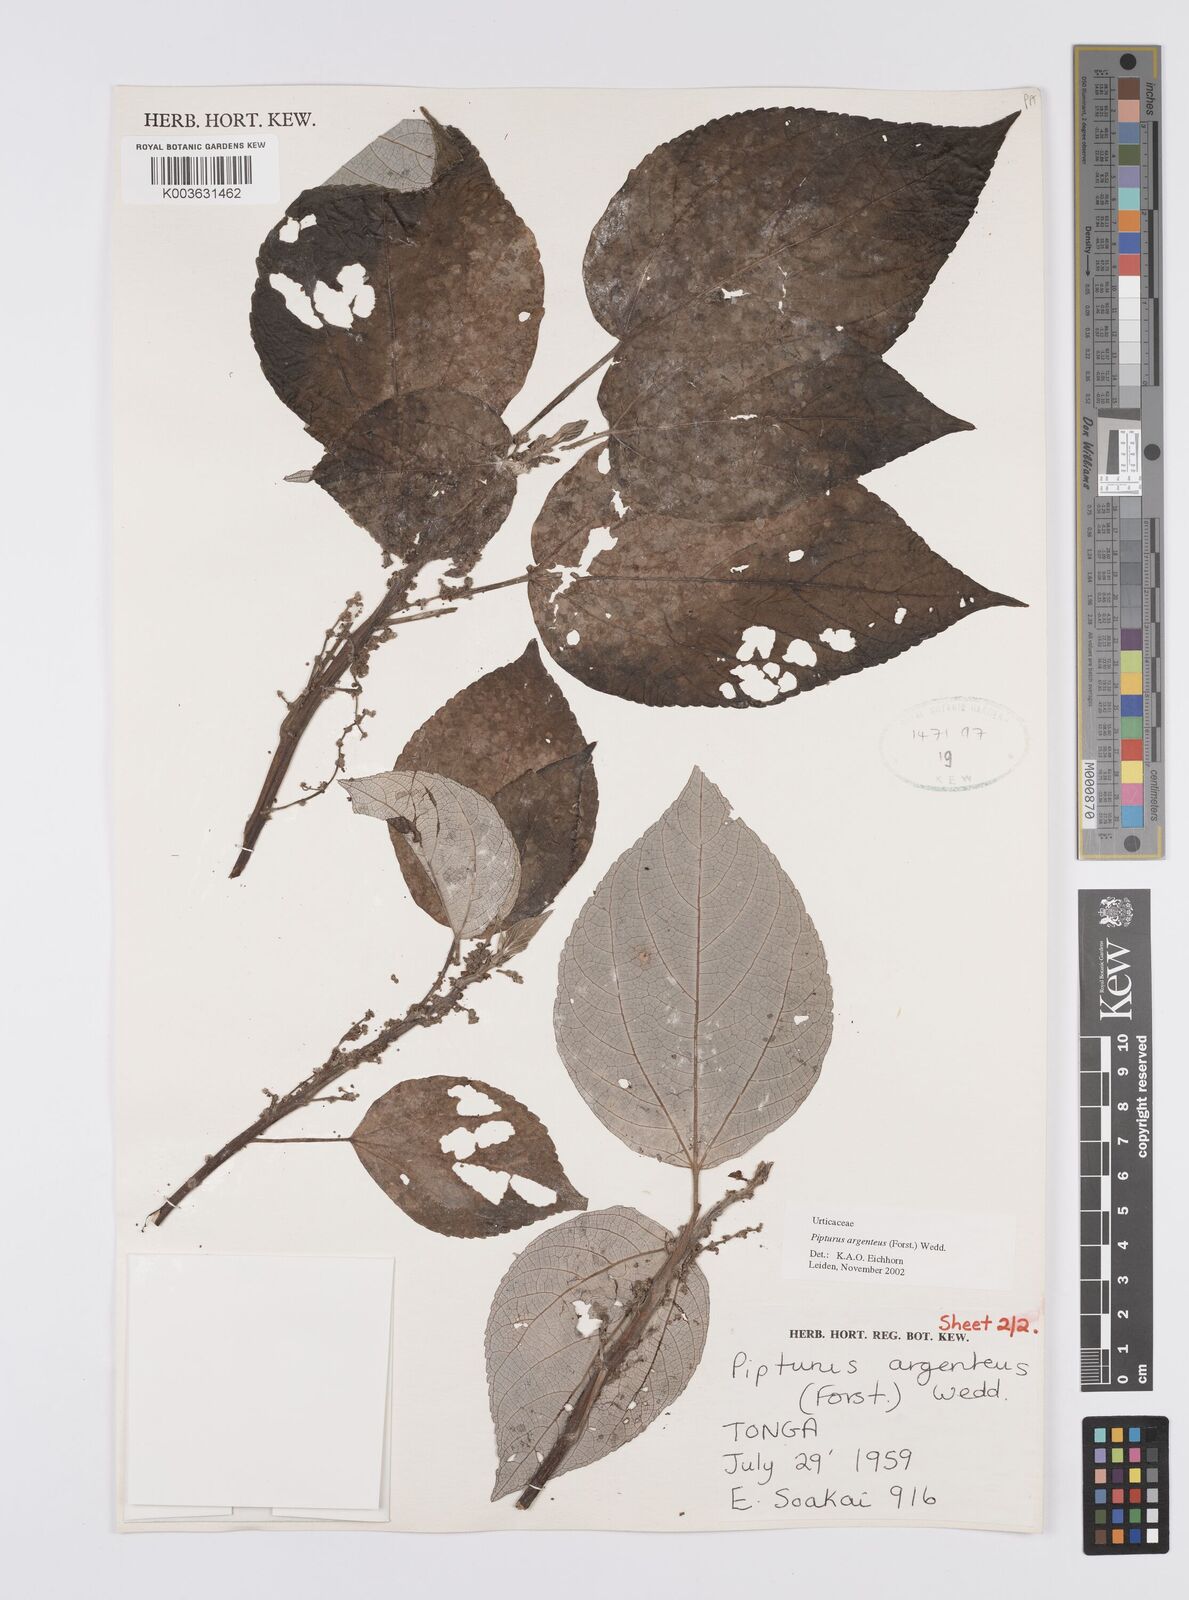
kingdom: Plantae
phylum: Tracheophyta
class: Magnoliopsida
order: Rosales
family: Urticaceae
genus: Pipturus
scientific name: Pipturus argenteus
